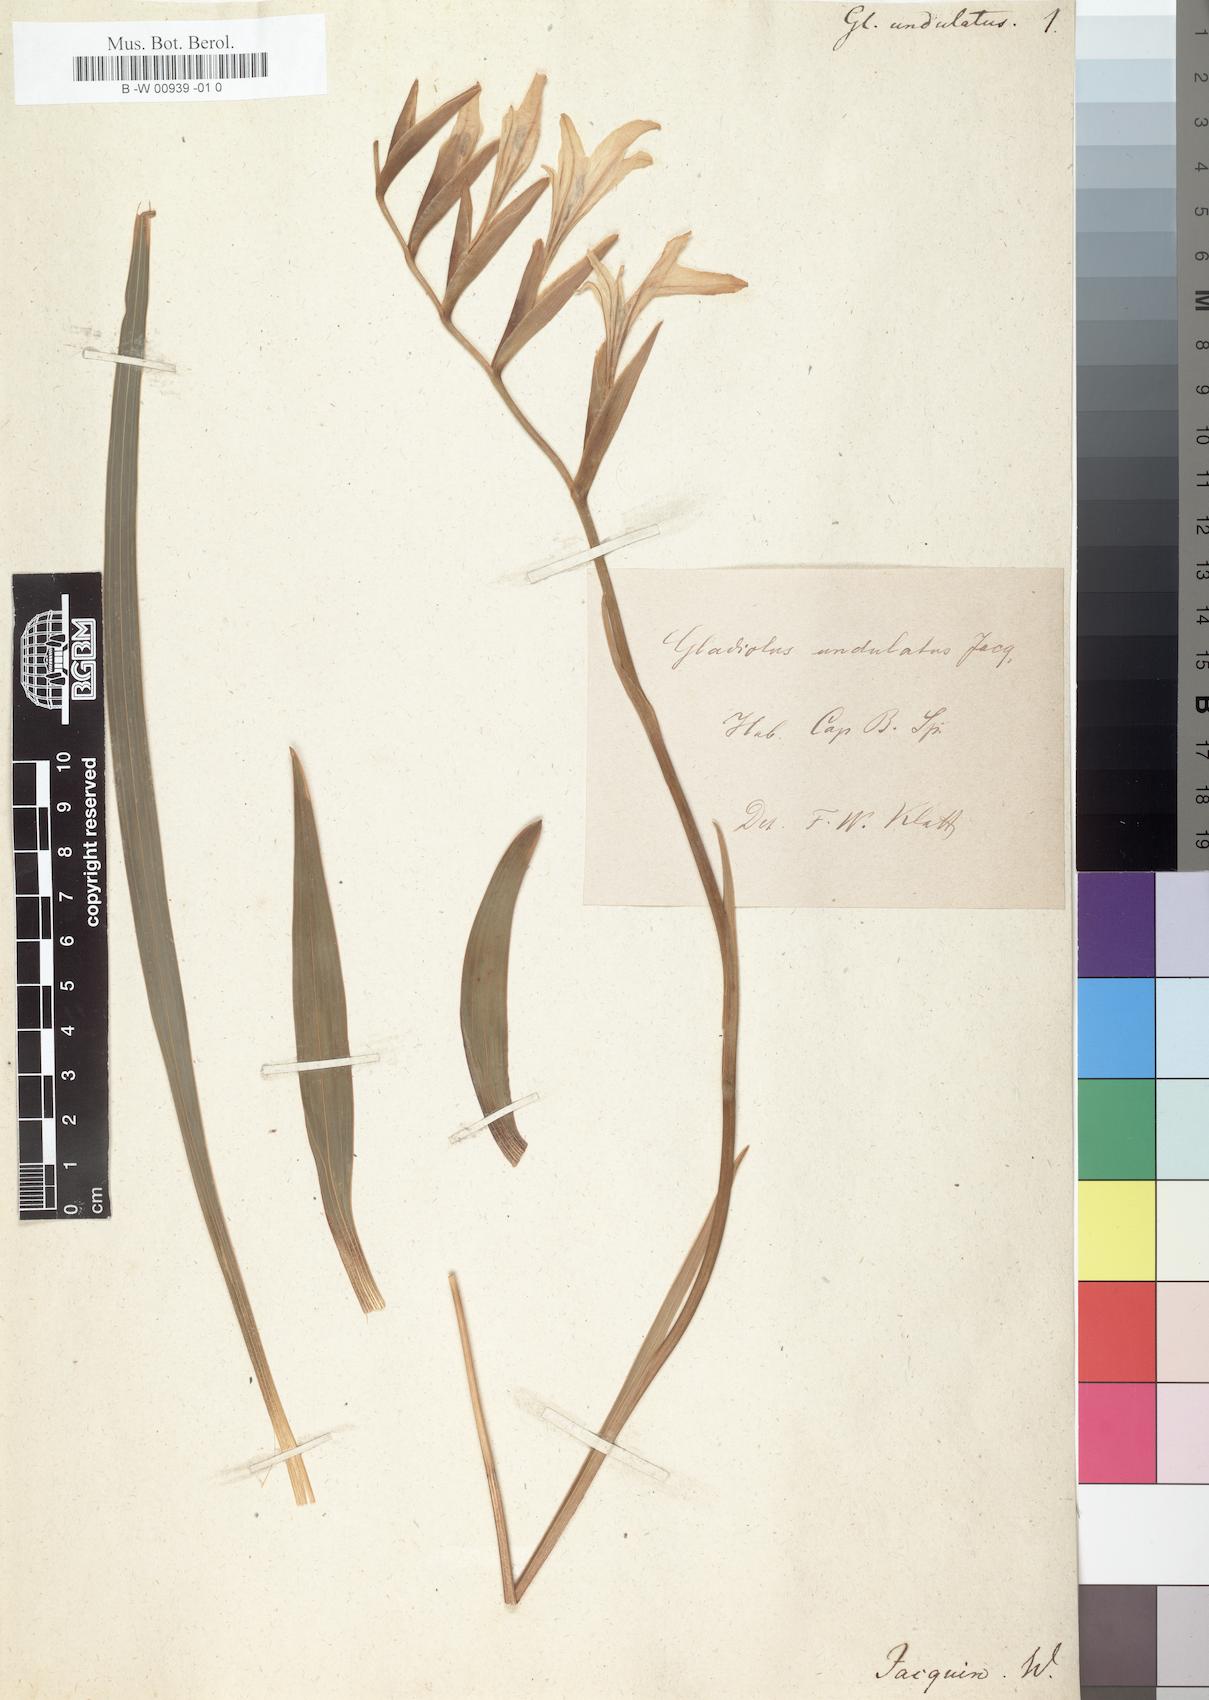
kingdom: Plantae
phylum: Tracheophyta
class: Liliopsida
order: Asparagales
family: Iridaceae
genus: Gladiolus
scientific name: Gladiolus undulatus
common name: Large painted-lady
